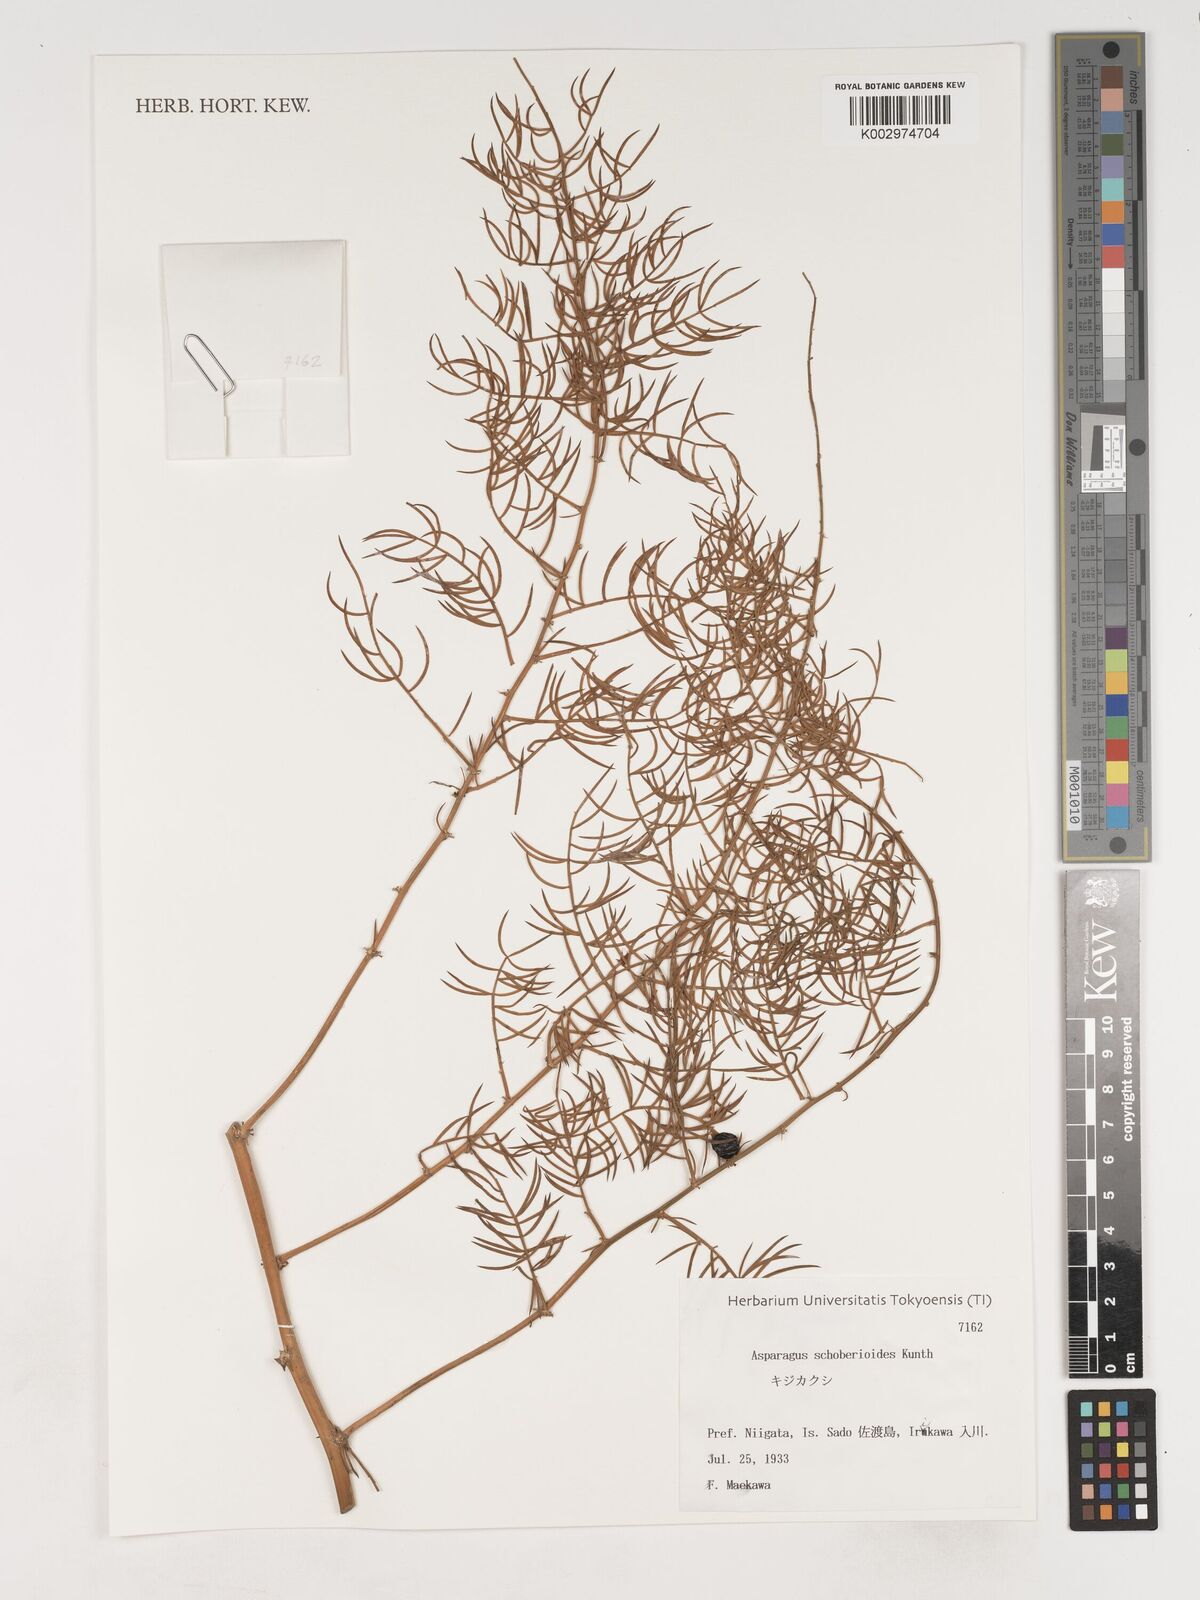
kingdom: Plantae
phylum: Tracheophyta
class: Liliopsida
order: Asparagales
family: Asparagaceae
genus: Asparagus
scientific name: Asparagus schoberioides
